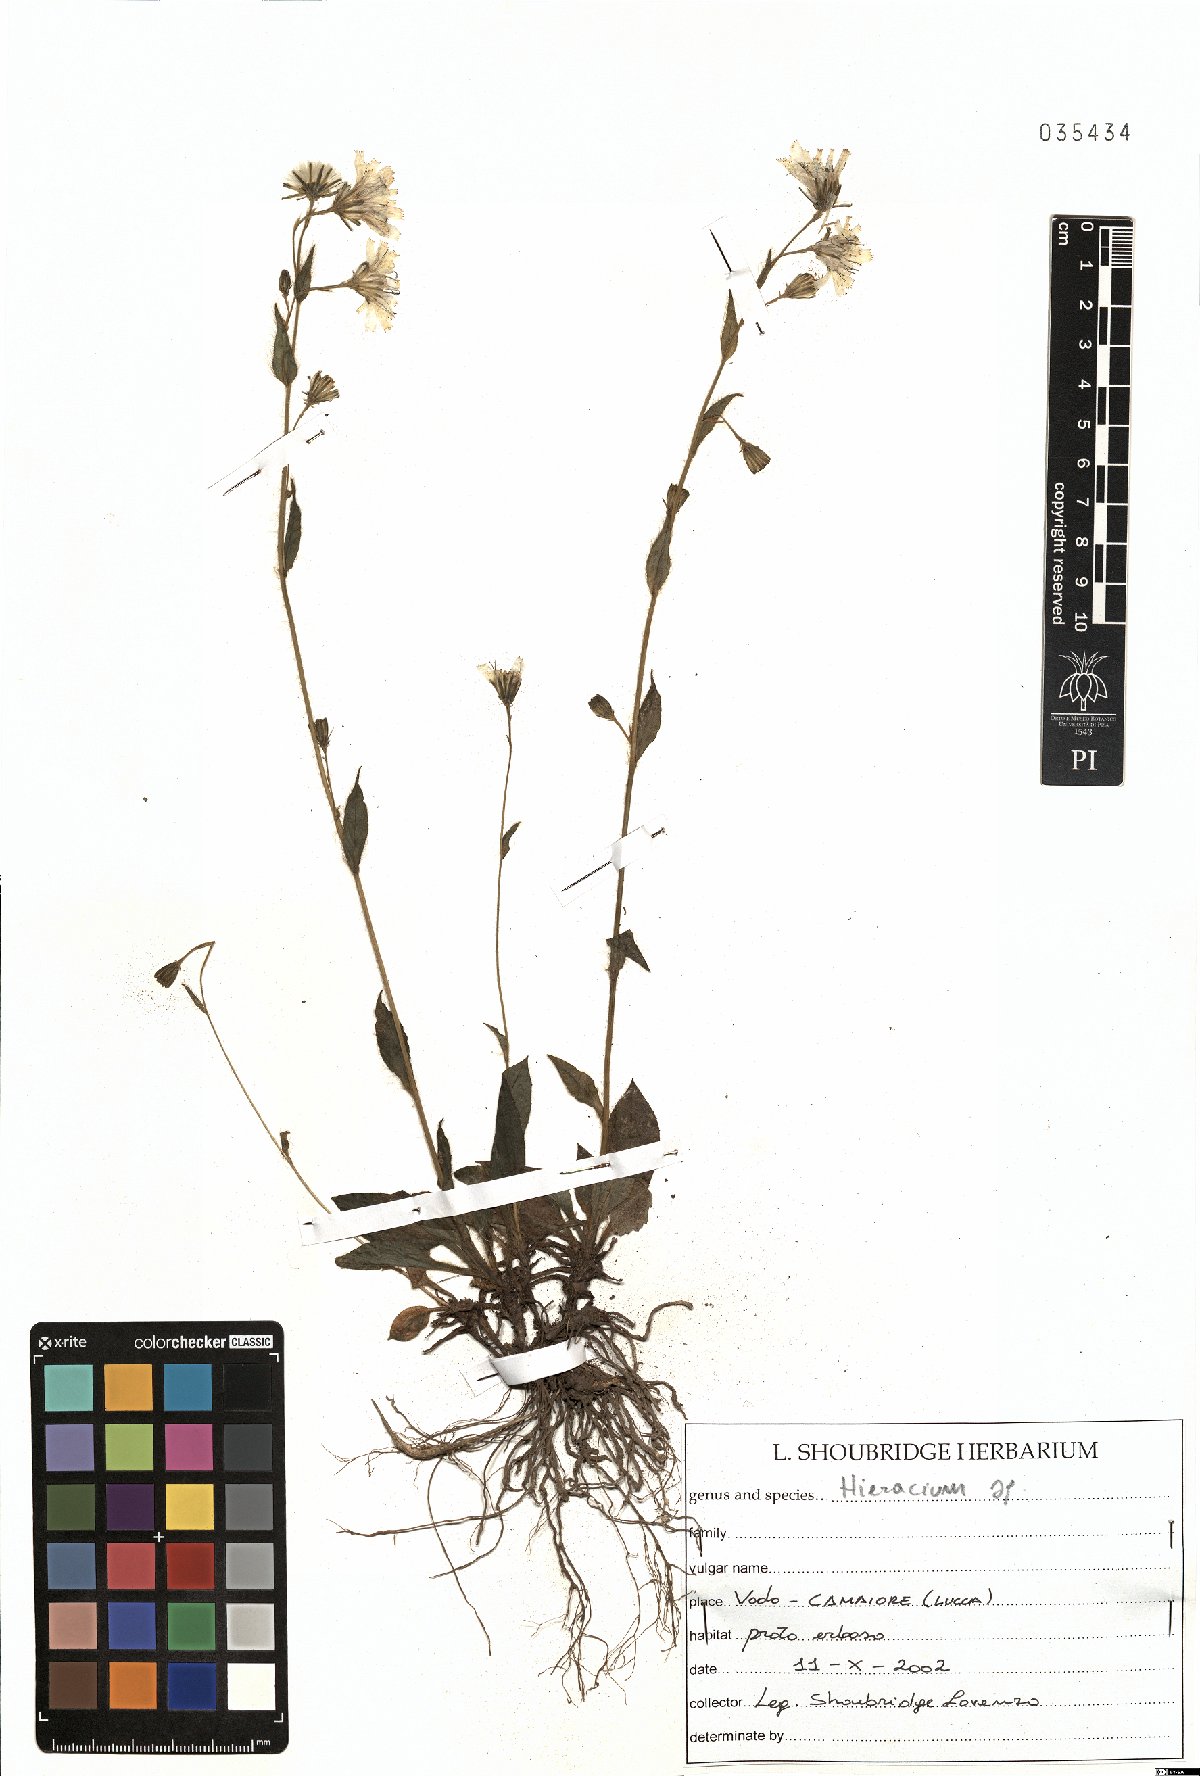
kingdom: Plantae
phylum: Tracheophyta
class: Magnoliopsida
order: Asterales
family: Asteraceae
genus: Hieracium
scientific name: Hieracium
